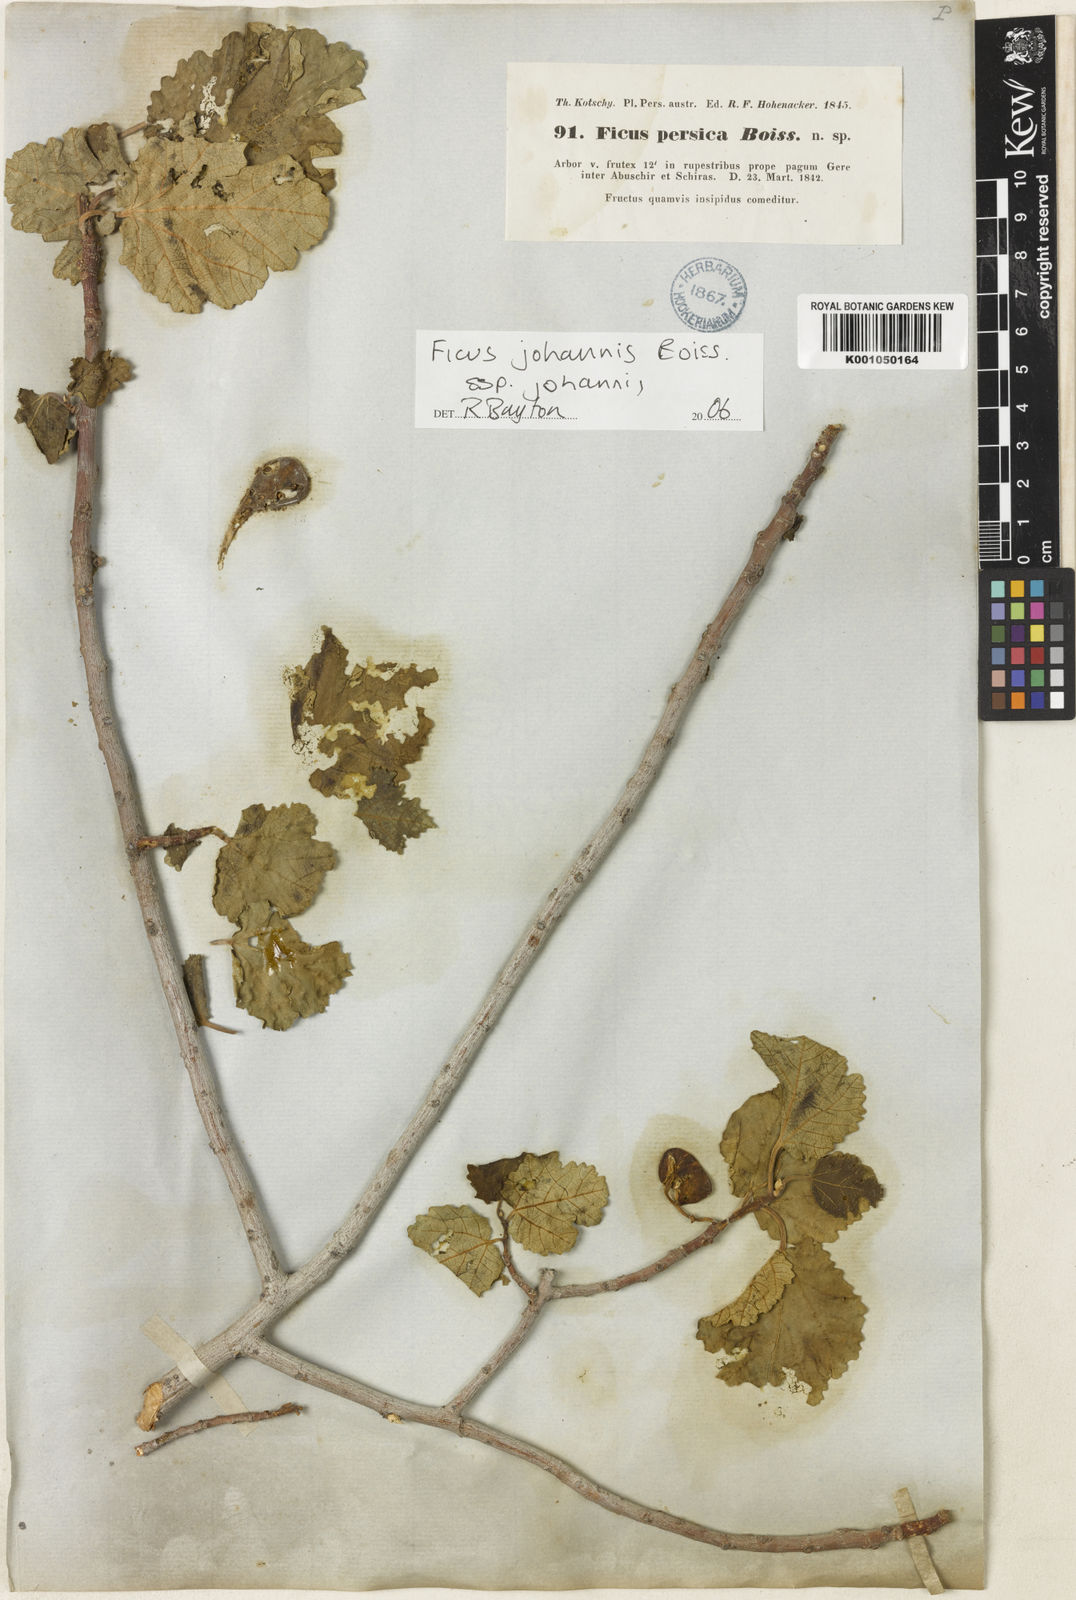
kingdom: Plantae
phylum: Tracheophyta
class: Magnoliopsida
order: Rosales
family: Moraceae
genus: Ficus
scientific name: Ficus carica
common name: Fig
